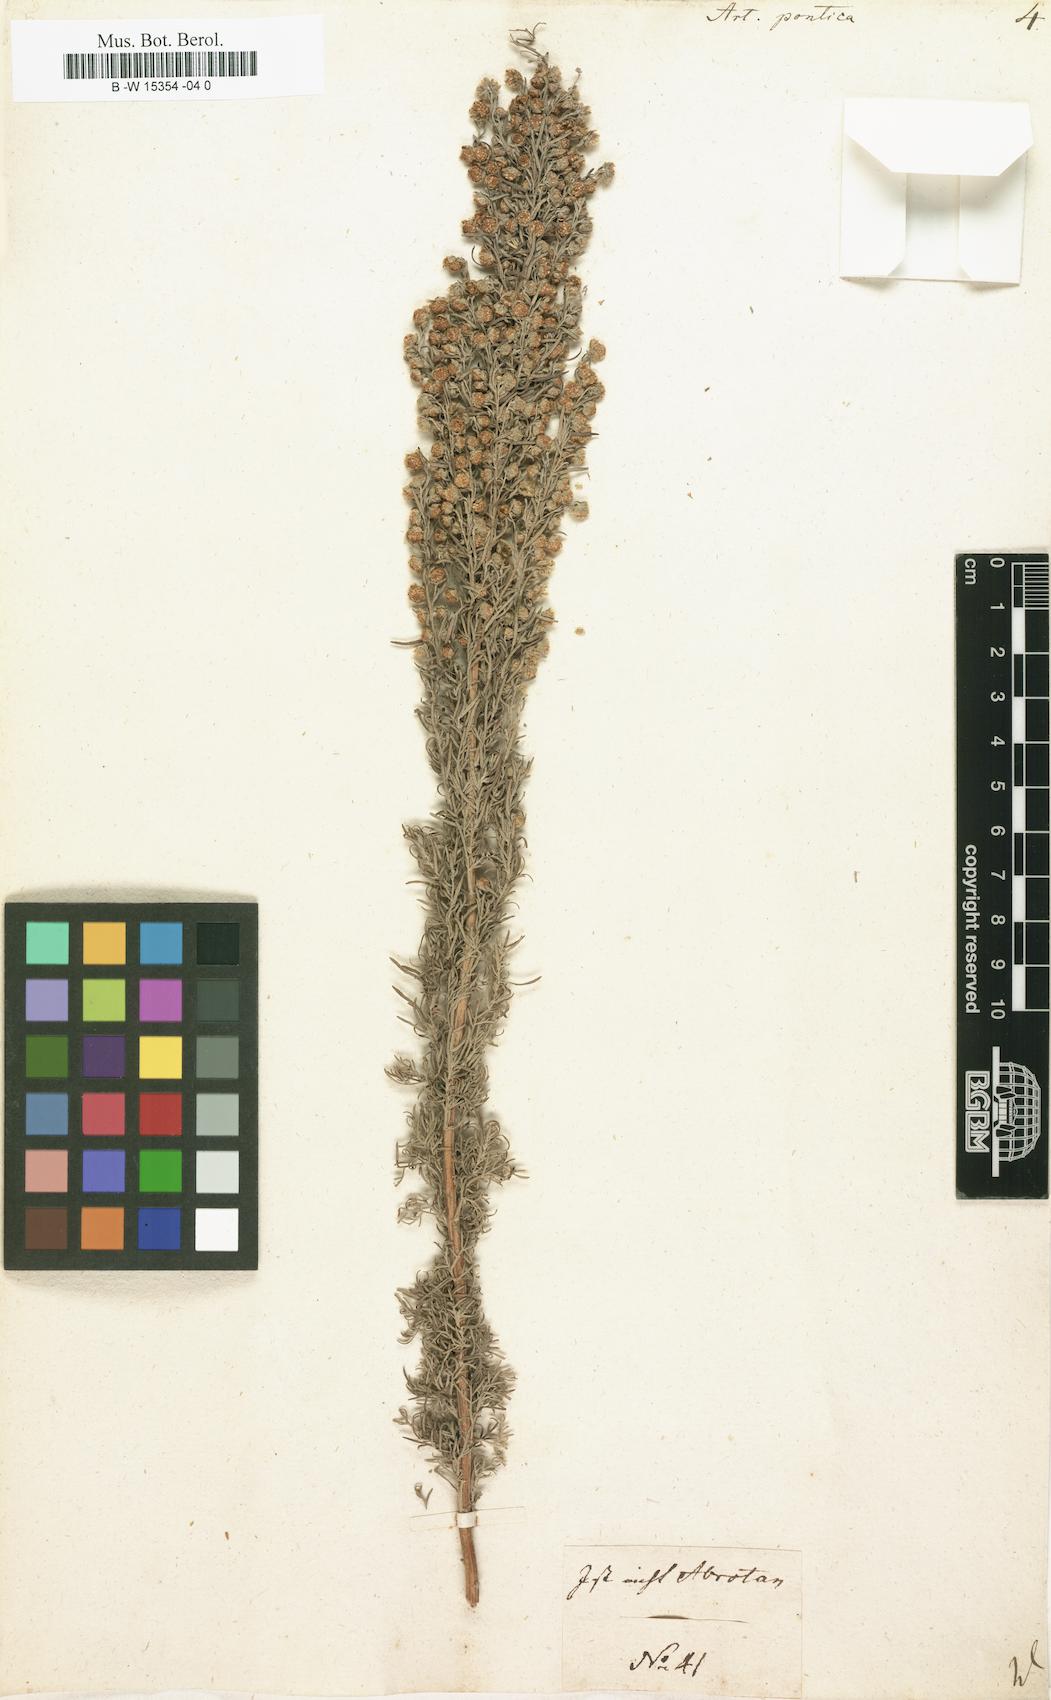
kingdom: Plantae
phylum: Tracheophyta
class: Magnoliopsida
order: Asterales
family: Asteraceae
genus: Artemisia
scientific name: Artemisia pontica
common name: Roman wormwood
